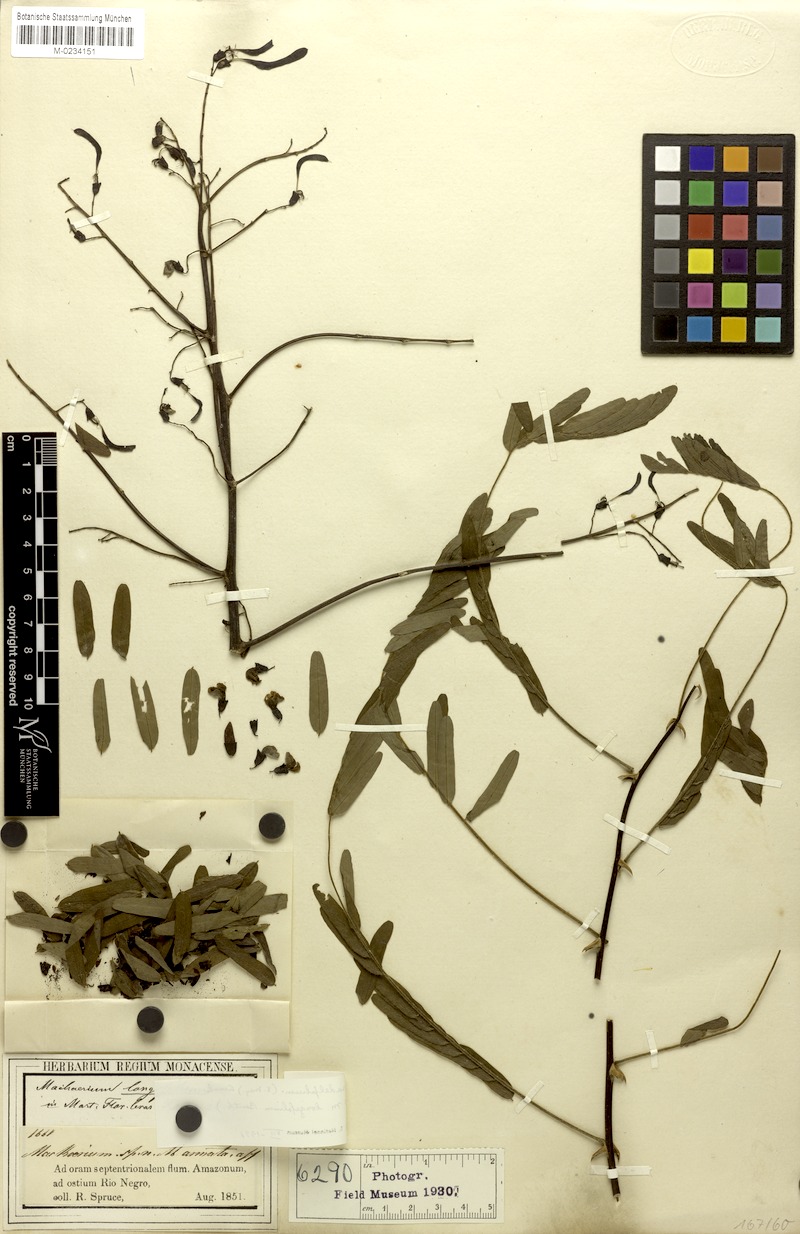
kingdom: Plantae
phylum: Tracheophyta
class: Magnoliopsida
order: Fabales
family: Fabaceae
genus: Machaerium
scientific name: Machaerium isadelphum
